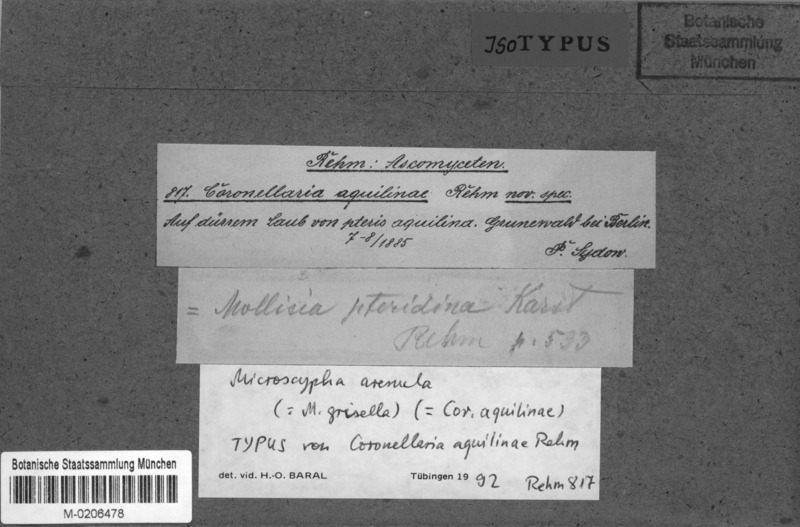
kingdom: Fungi
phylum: Ascomycota
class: Dothideomycetes
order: Microthyriales
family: Leptopeltidaceae
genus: Leptopeltis
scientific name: Leptopeltis aquilina
